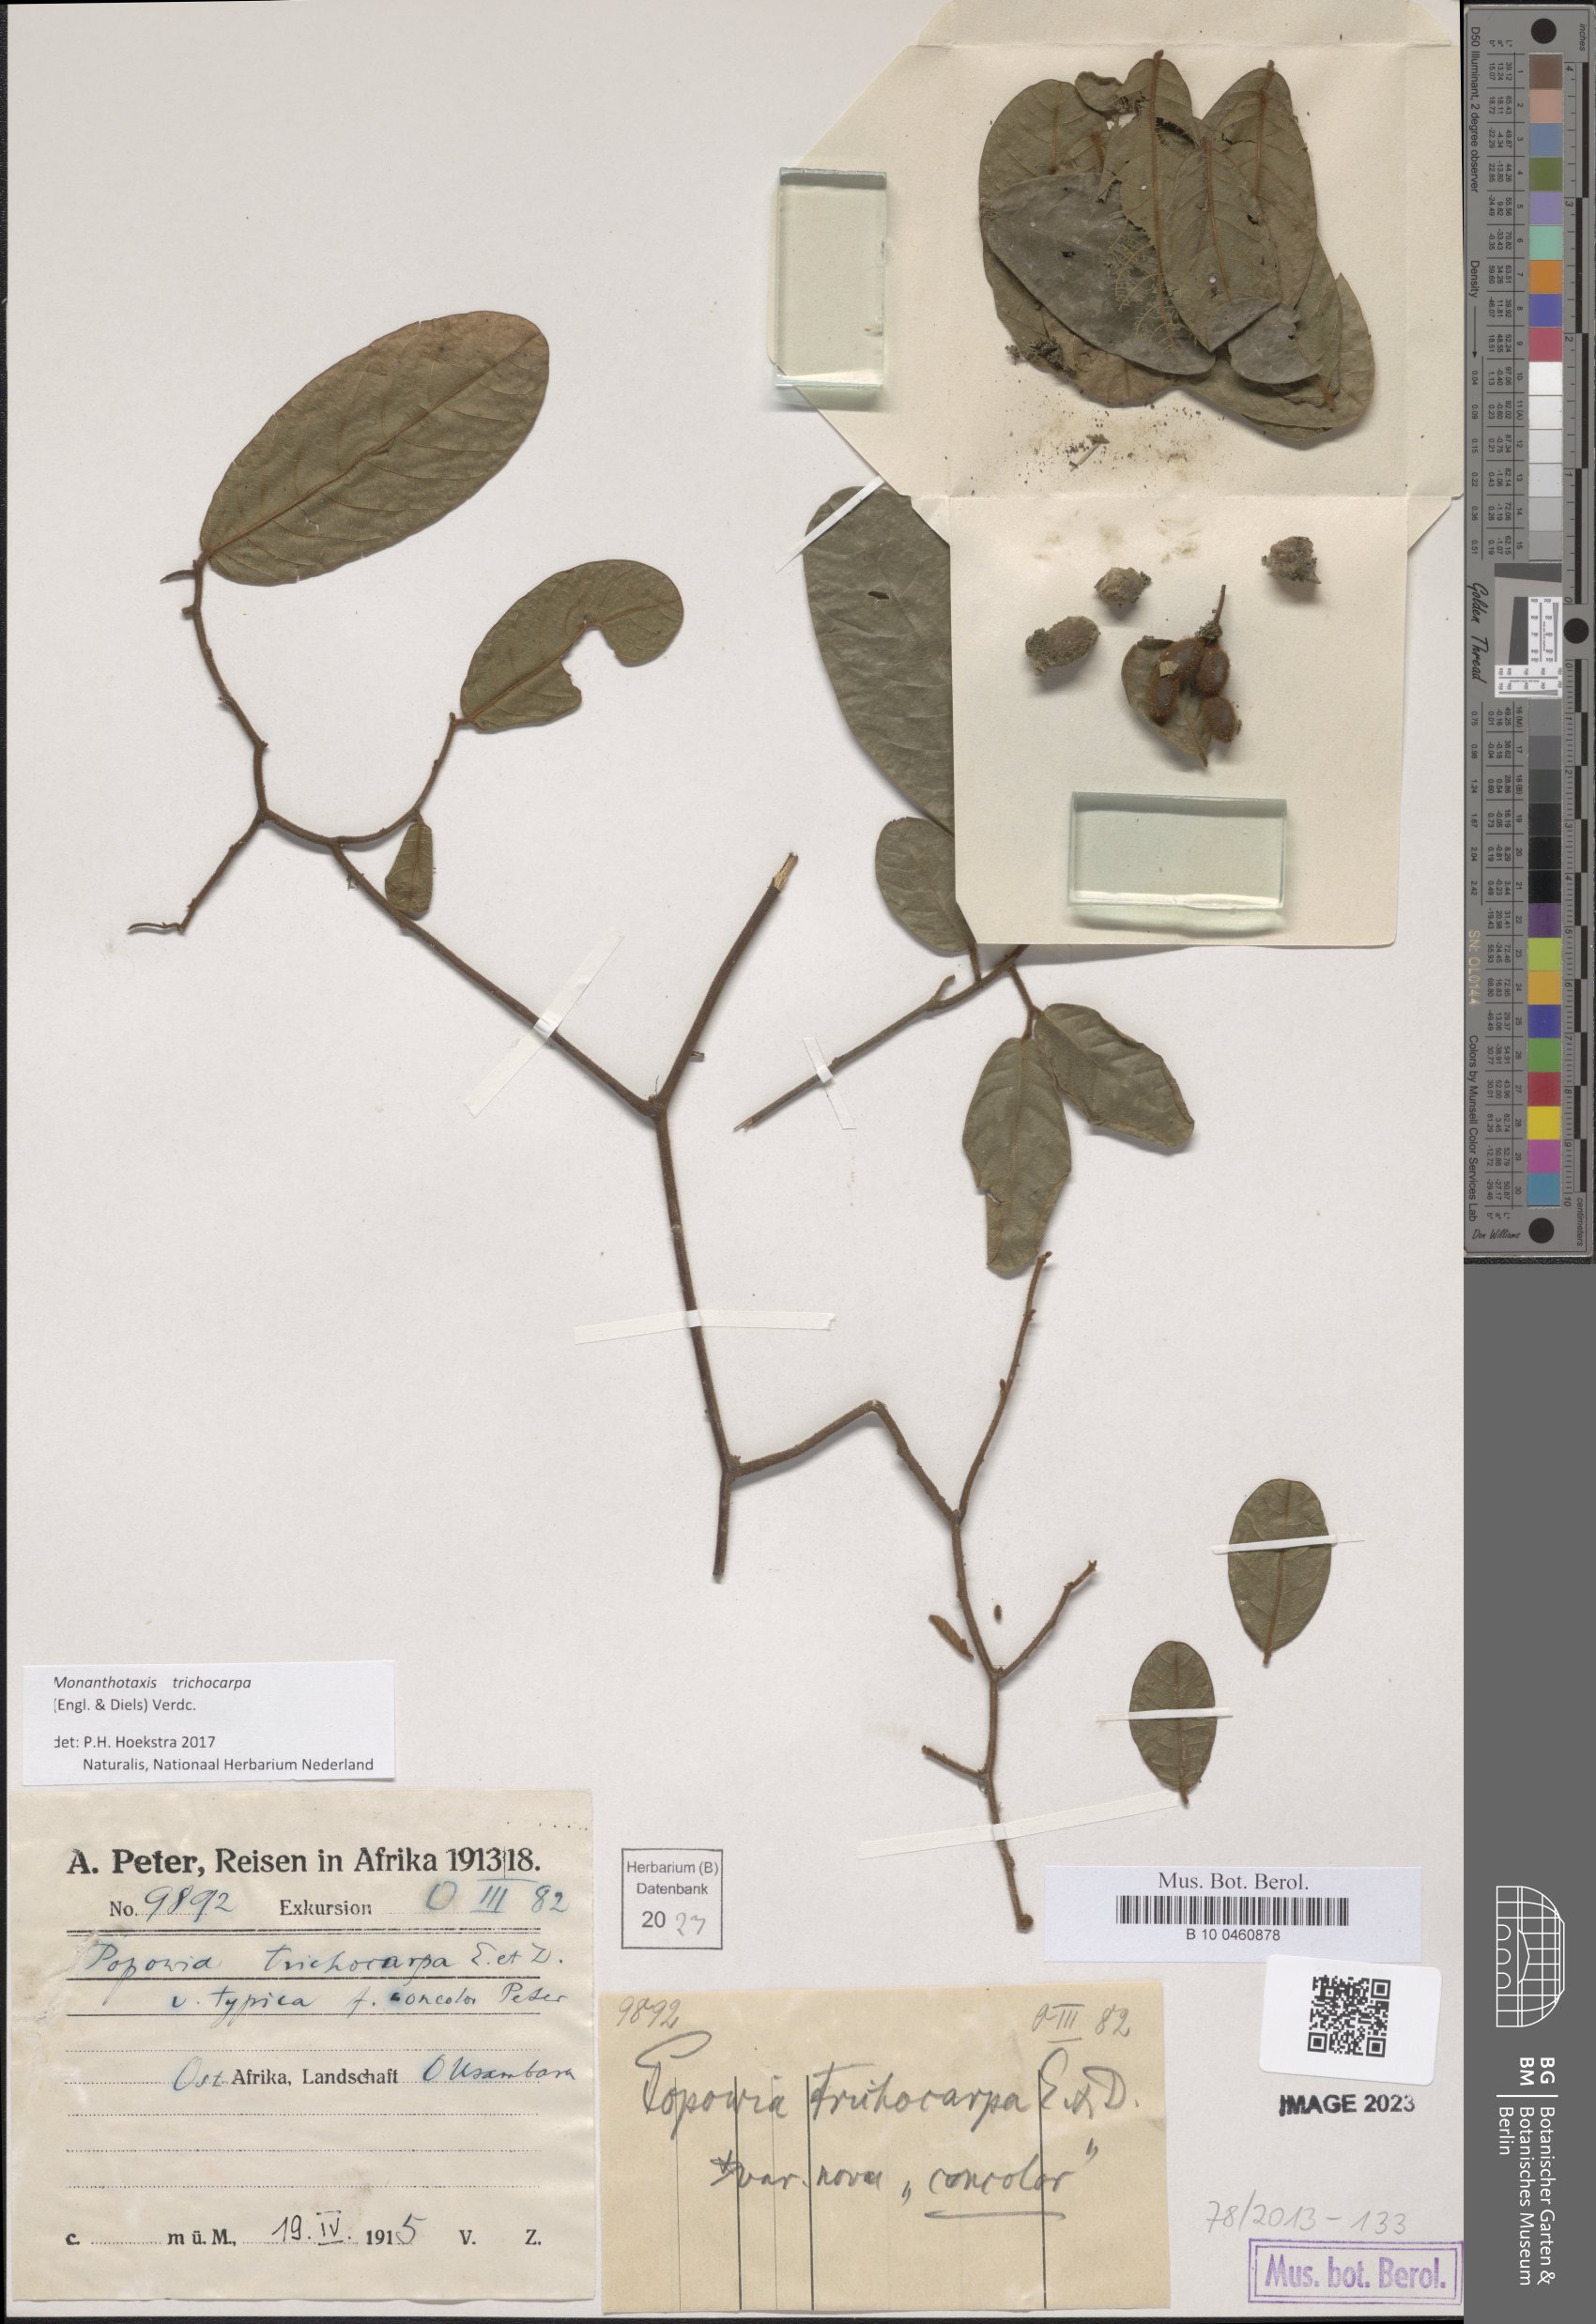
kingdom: Plantae
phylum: Tracheophyta
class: Magnoliopsida
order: Magnoliales
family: Annonaceae
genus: Monanthotaxis
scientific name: Monanthotaxis trichocarpa
